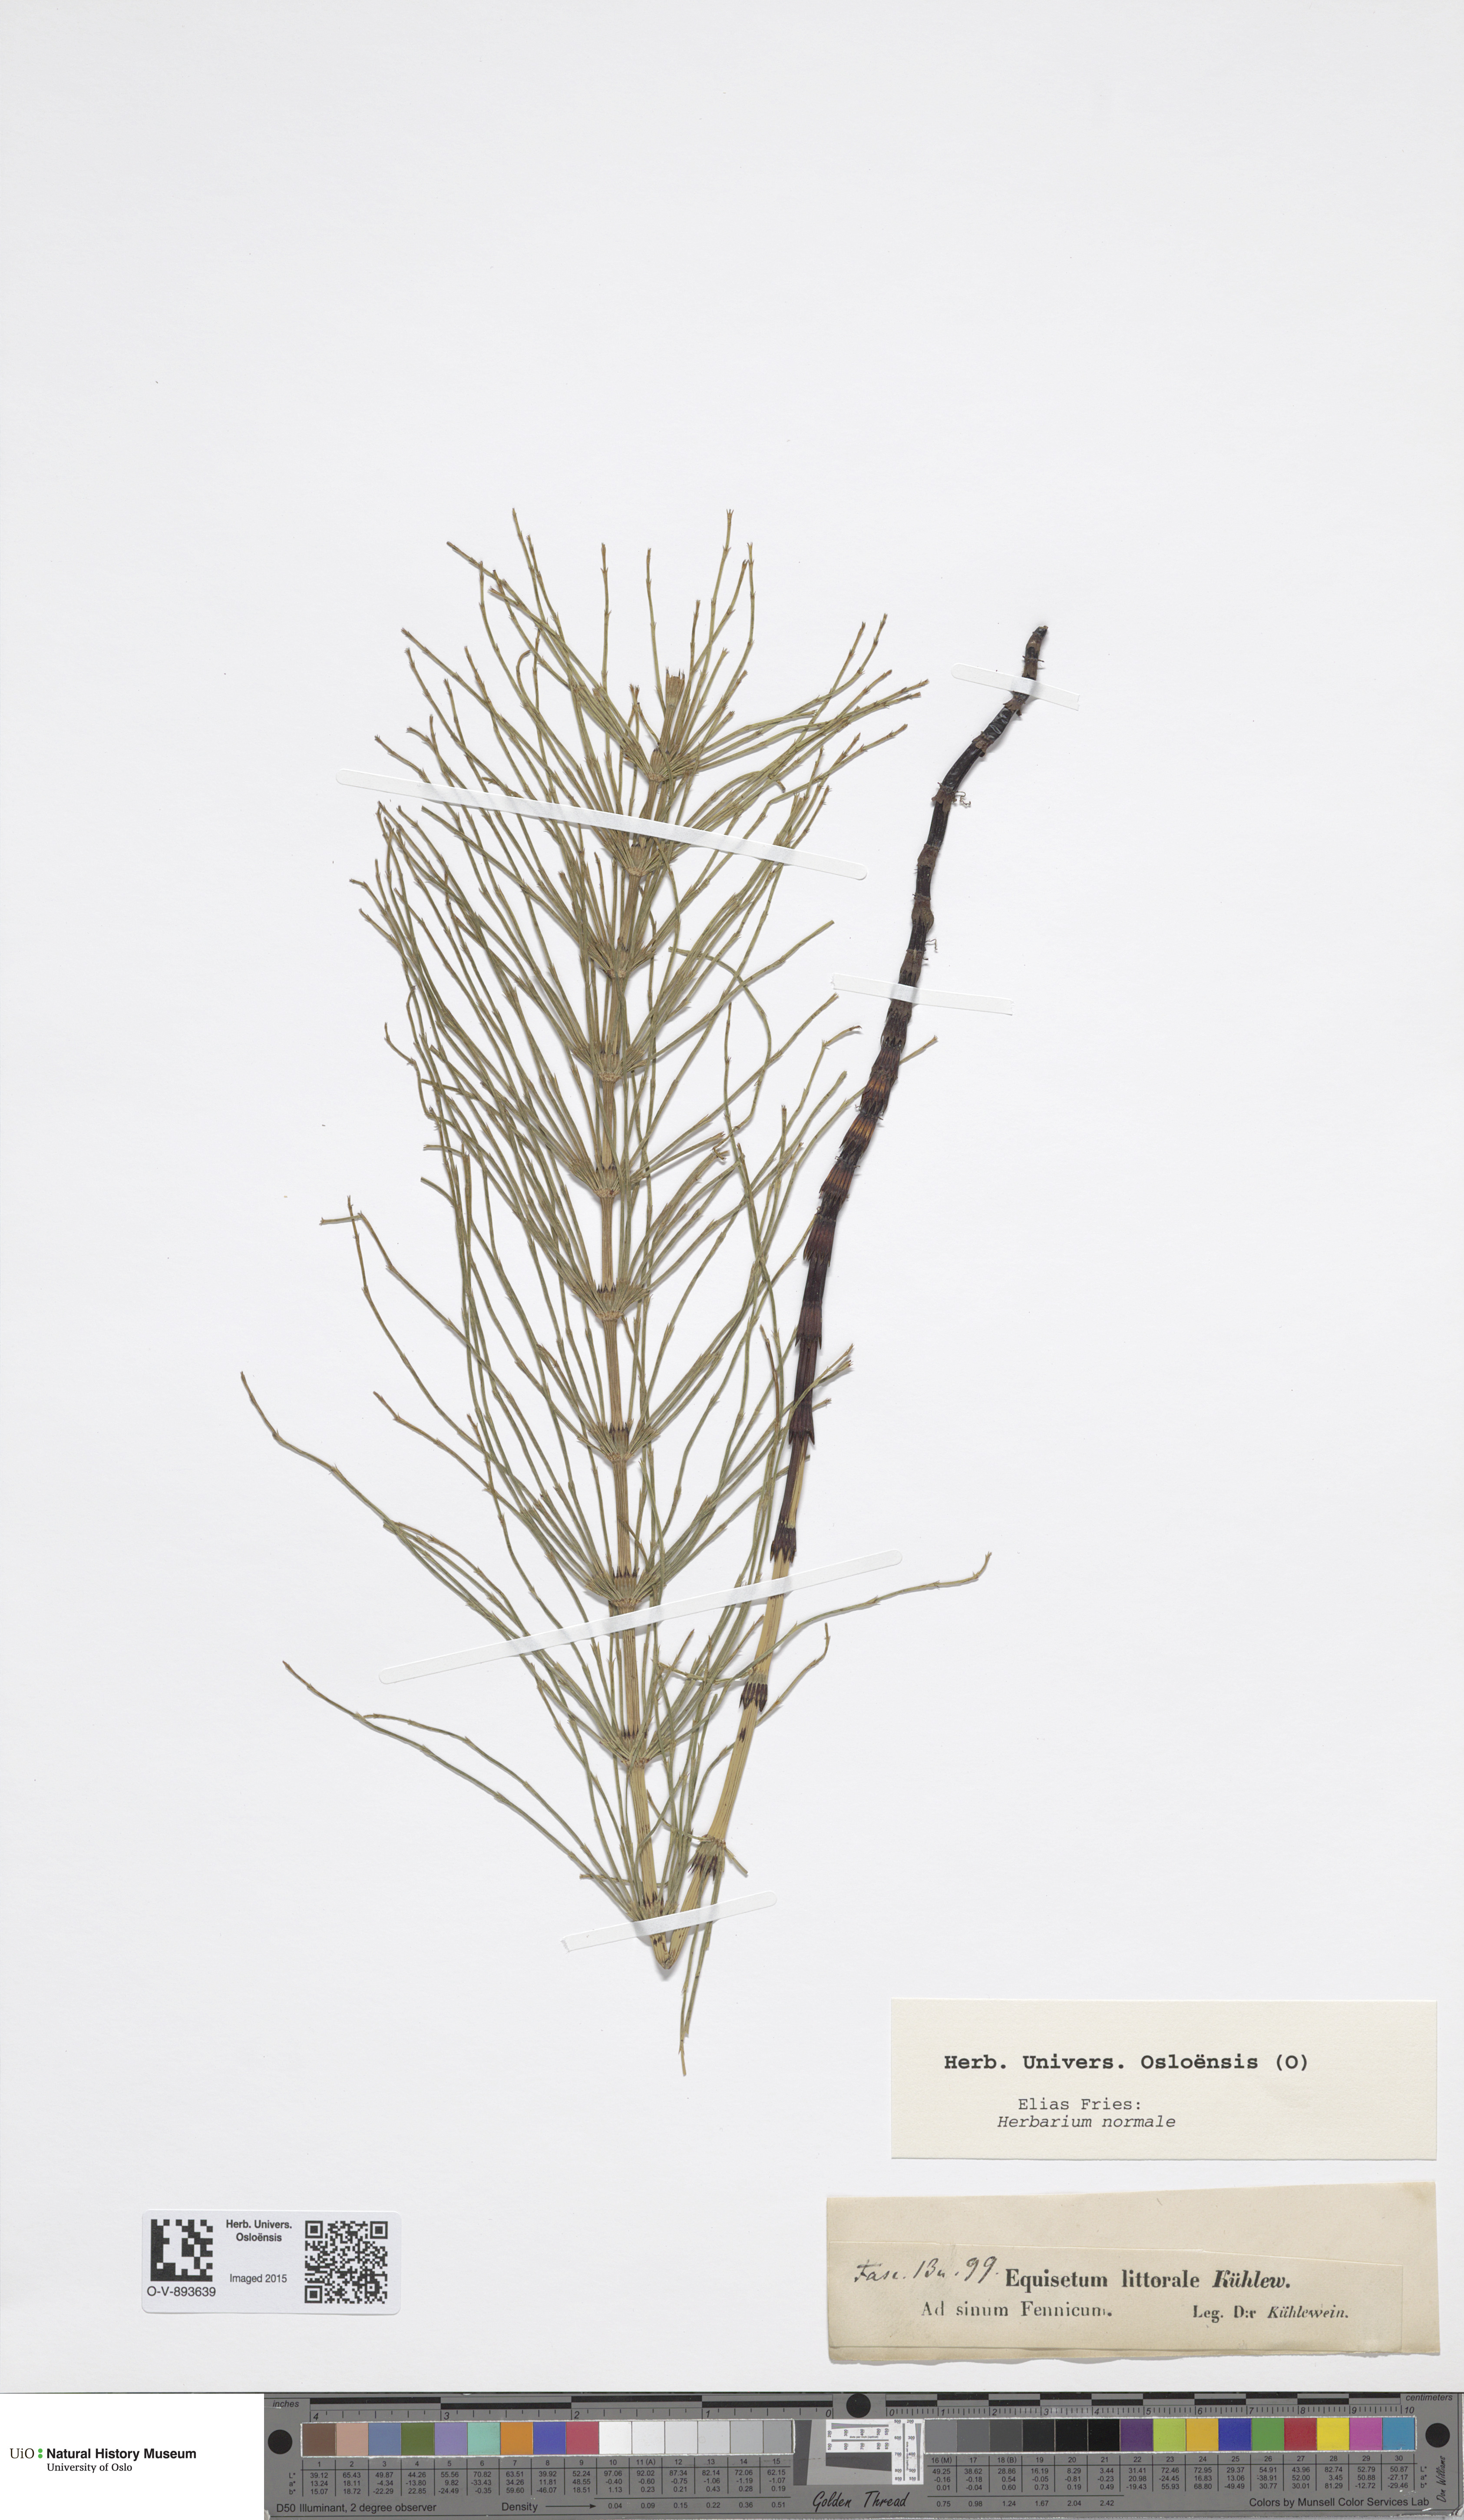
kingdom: Plantae
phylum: Tracheophyta
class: Polypodiopsida
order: Equisetales
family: Equisetaceae
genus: Equisetum
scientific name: Equisetum litorale
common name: Littoral horsetail
